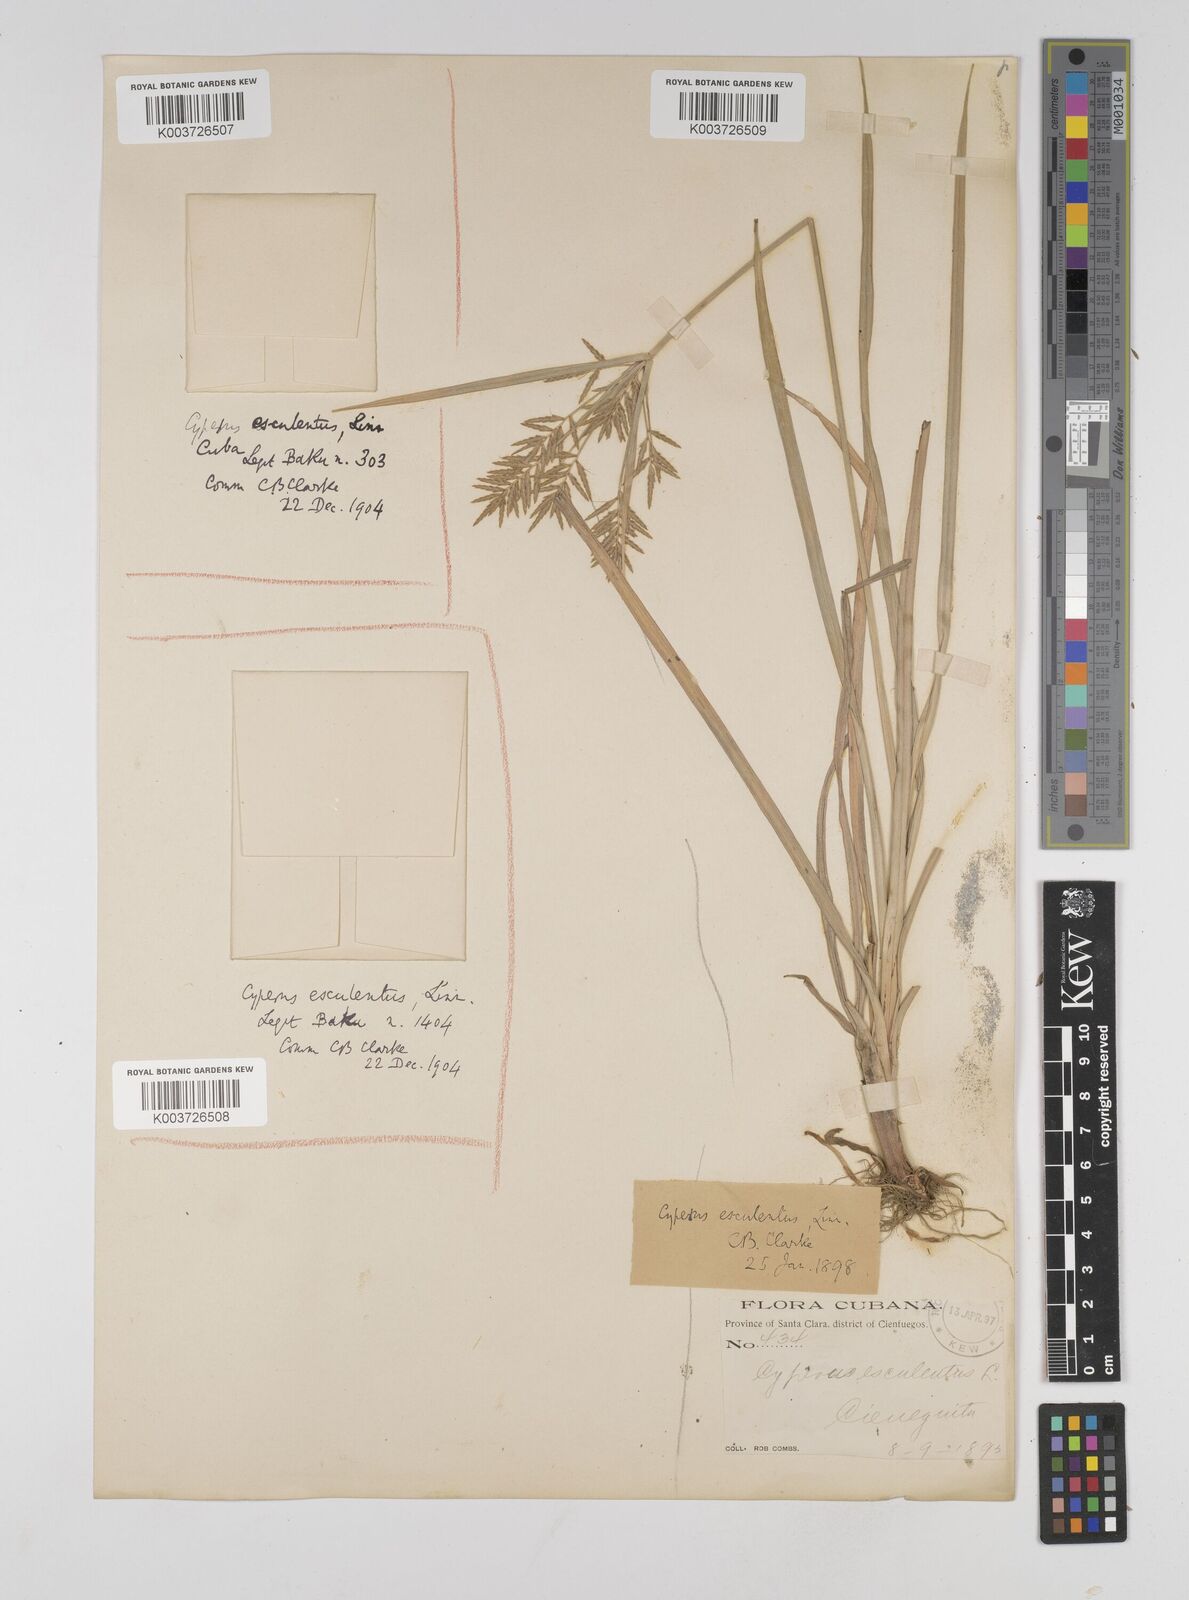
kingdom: Plantae
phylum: Tracheophyta
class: Liliopsida
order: Poales
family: Cyperaceae
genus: Cyperus
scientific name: Cyperus esculentus
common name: Yellow nutsedge
